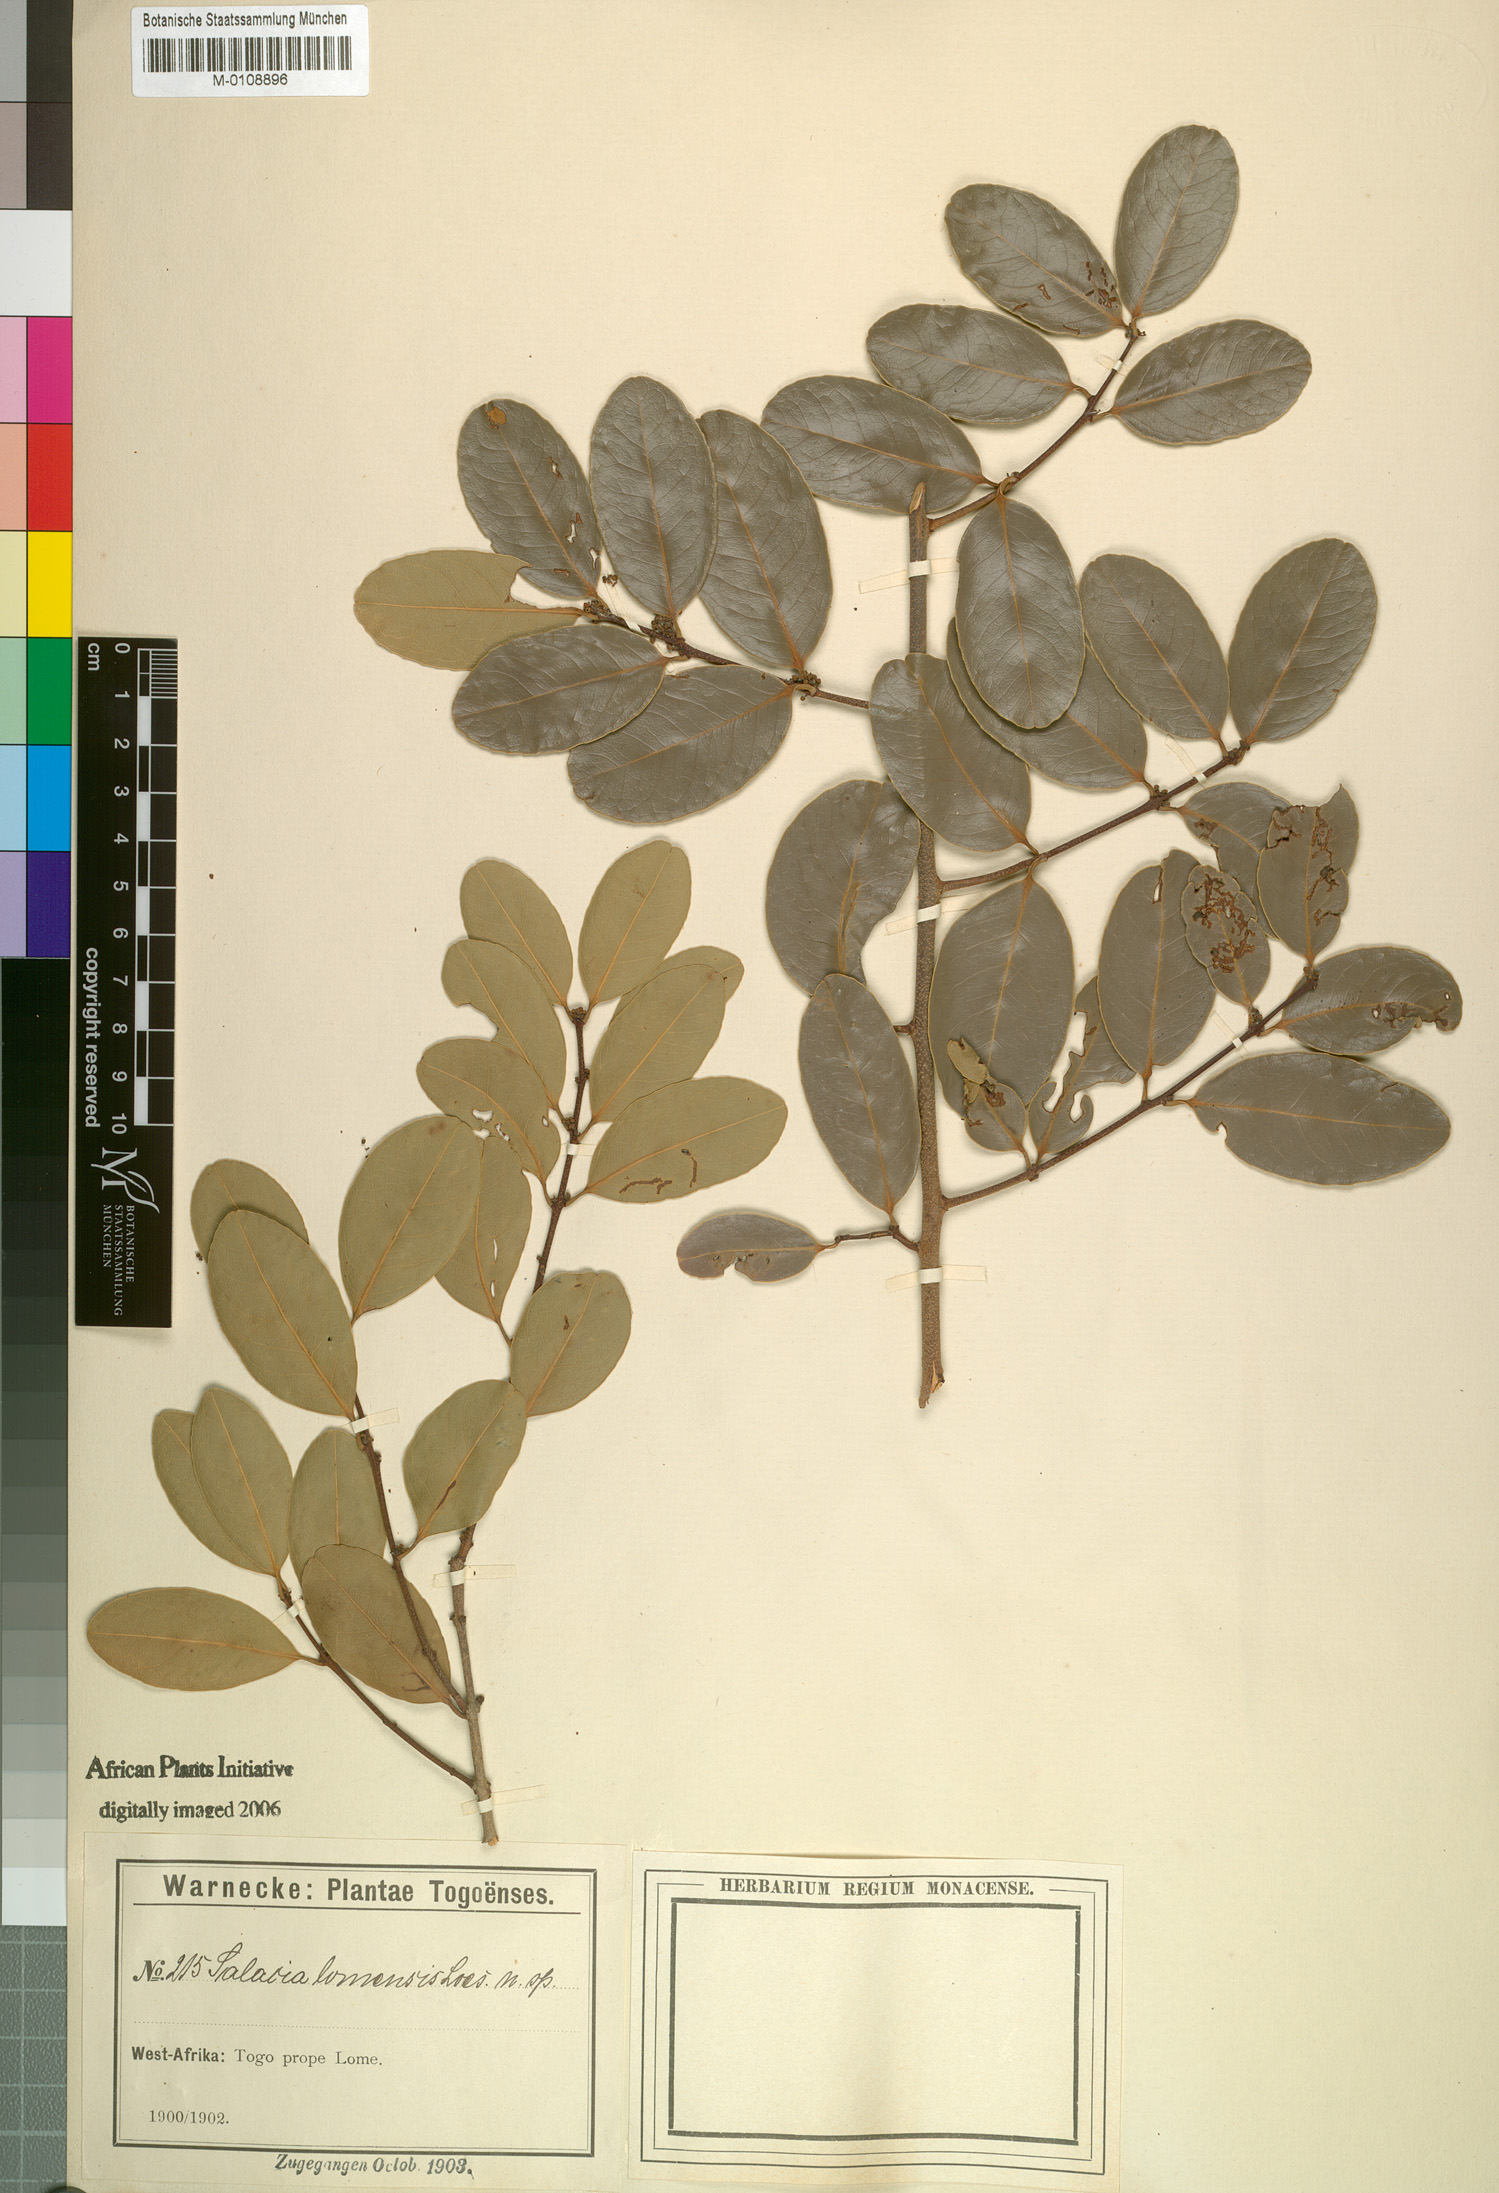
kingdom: Plantae
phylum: Tracheophyta
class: Magnoliopsida
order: Celastrales
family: Celastraceae
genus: Salacia
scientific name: Salacia stuhlmanniana
